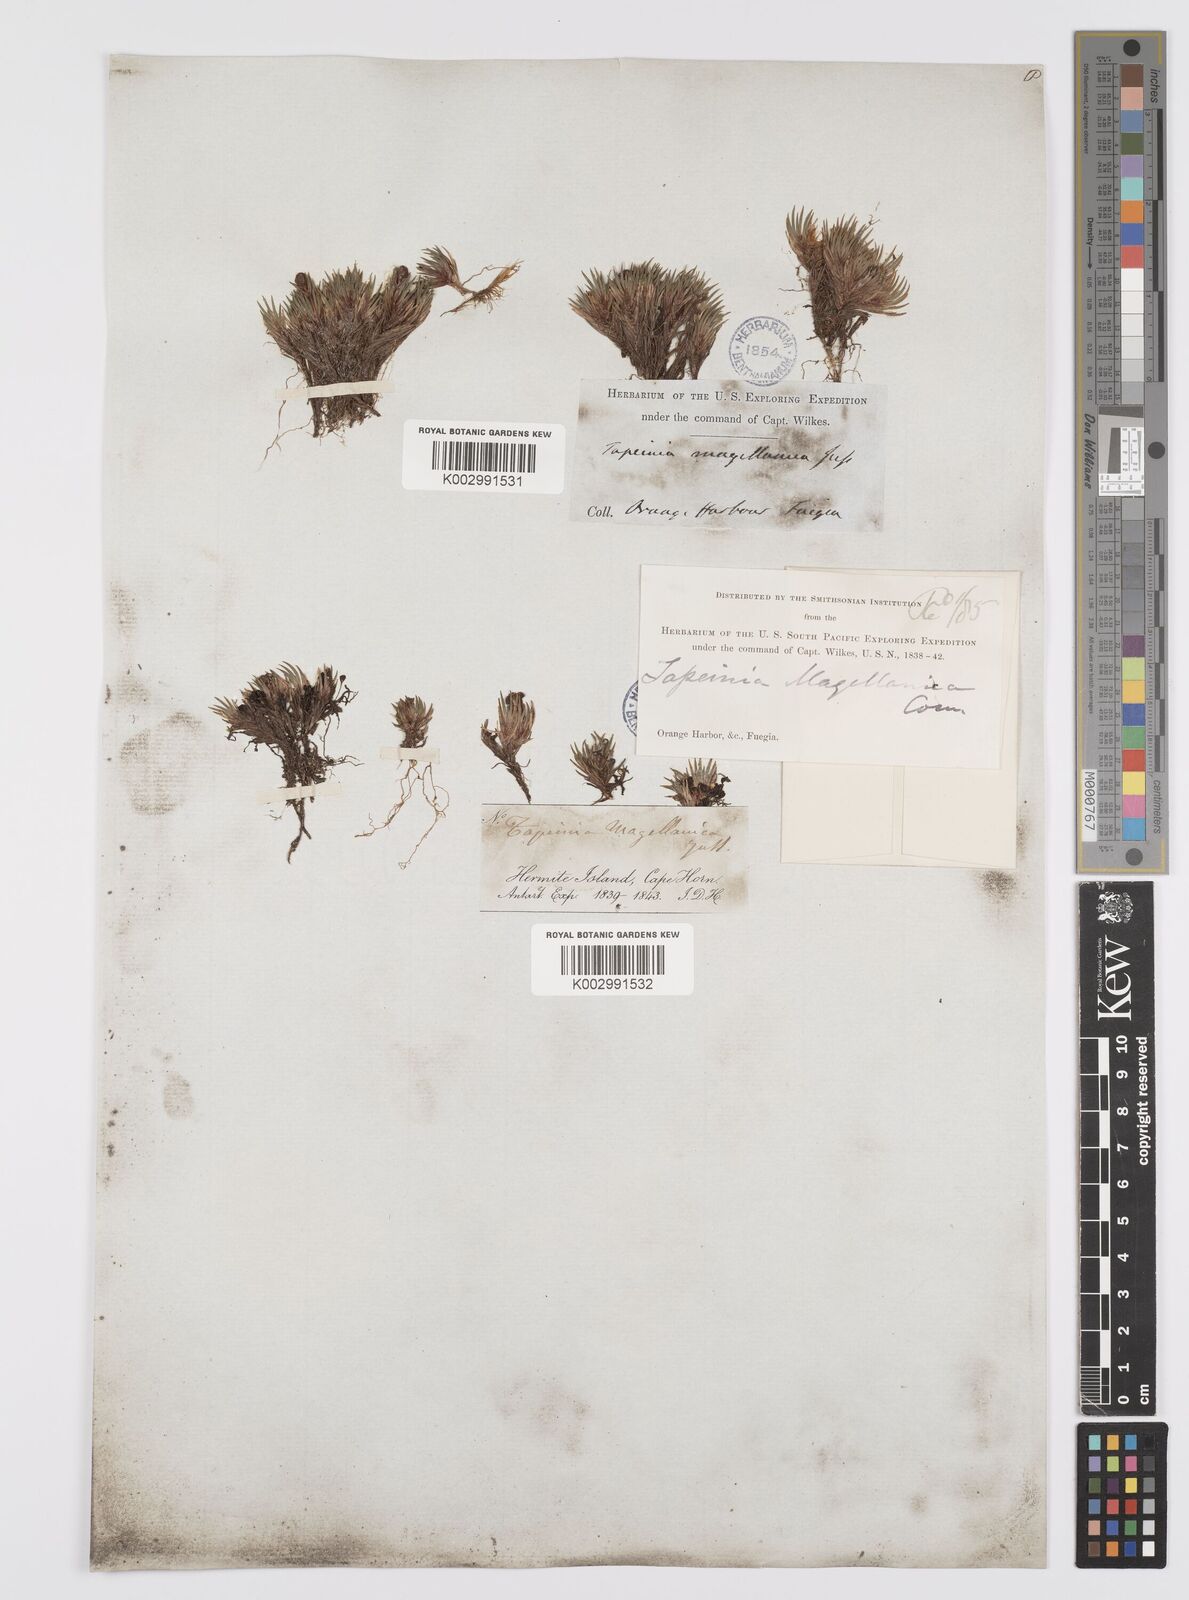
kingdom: Plantae
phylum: Tracheophyta
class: Liliopsida
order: Asparagales
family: Iridaceae
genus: Tapeinia
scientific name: Tapeinia pumila
